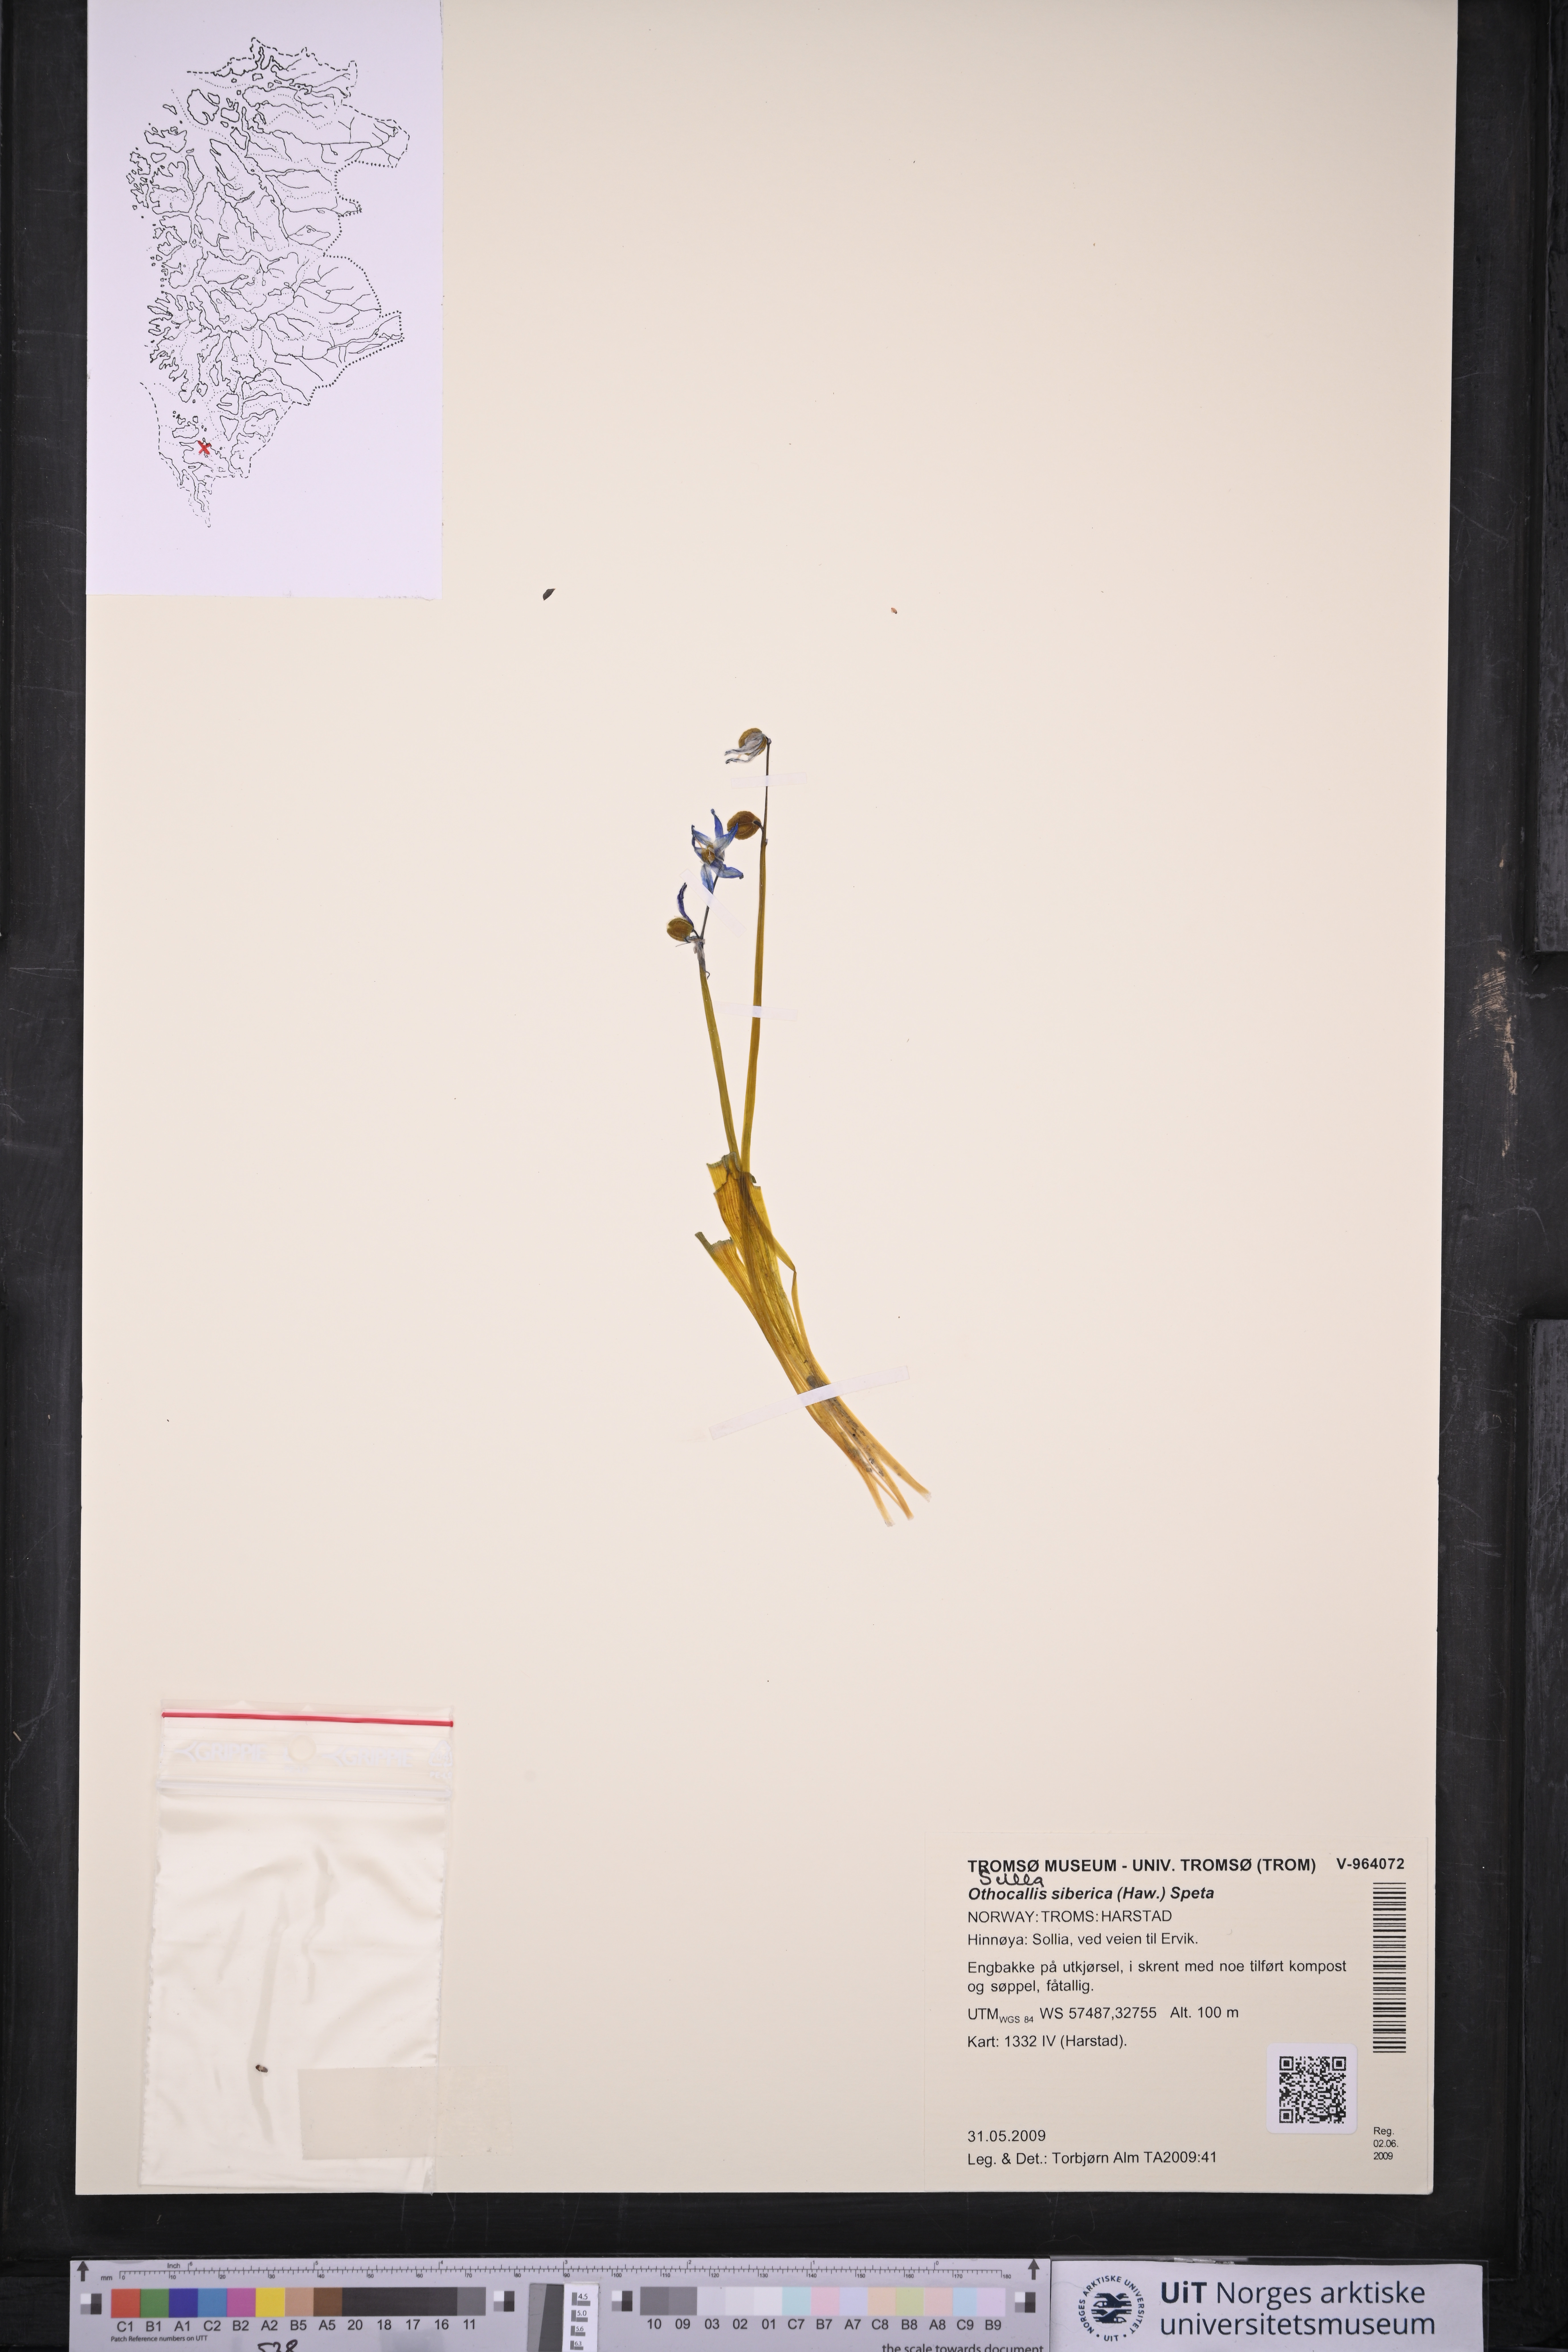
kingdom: Plantae
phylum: Tracheophyta
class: Liliopsida
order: Asparagales
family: Asparagaceae
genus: Scilla
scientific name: Scilla siberica
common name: Siberian squill
